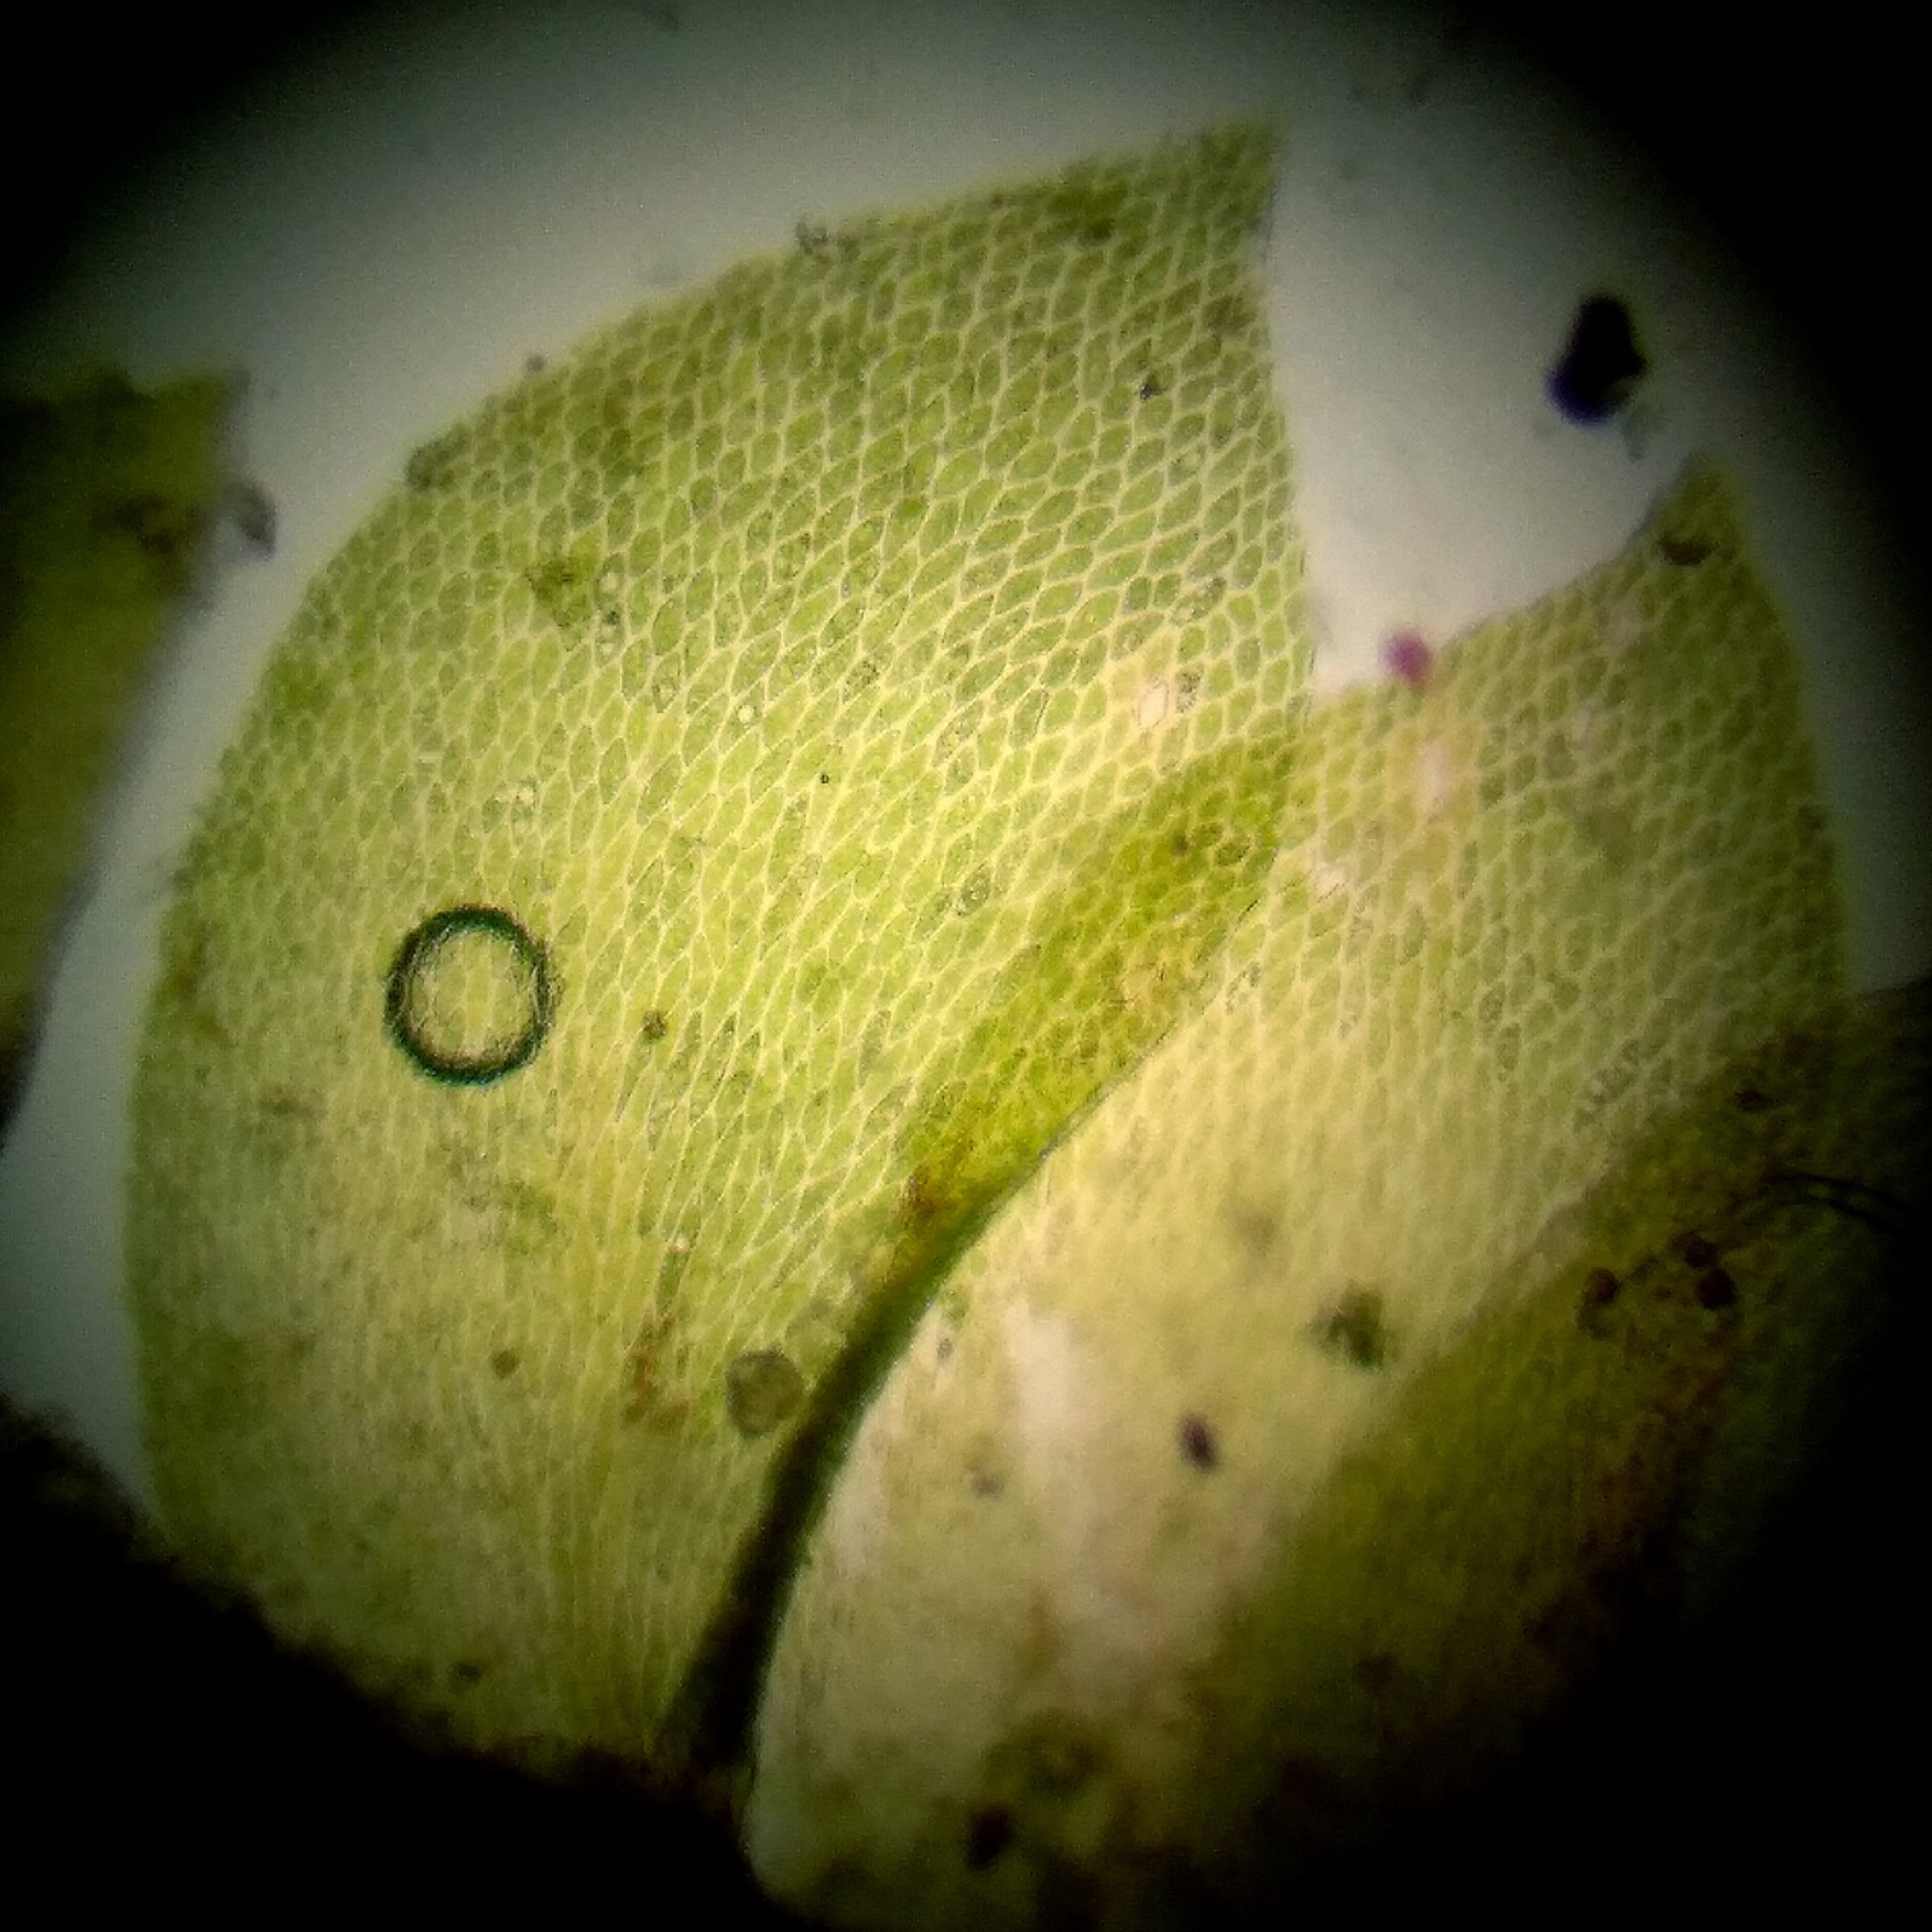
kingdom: Plantae
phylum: Bryophyta
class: Bryopsida
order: Hypnales
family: Neckeraceae
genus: Alleniella
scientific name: Alleniella complanata
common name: Almindelig fladmos
